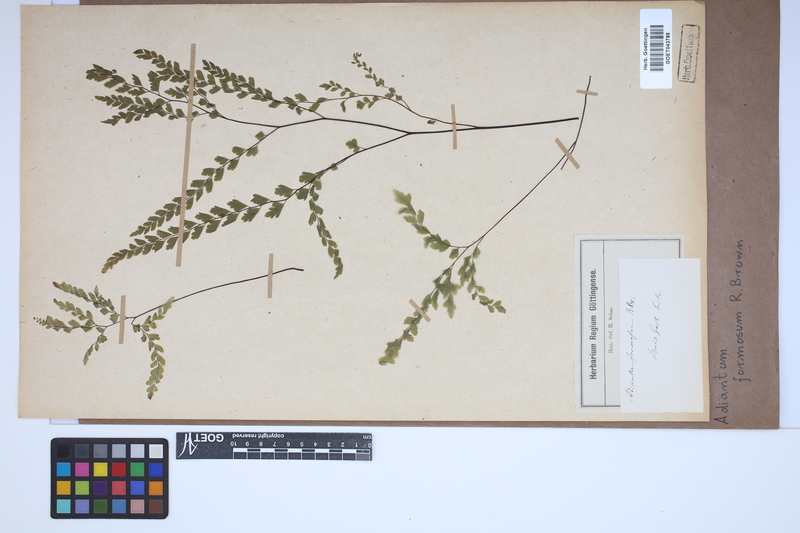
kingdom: Plantae
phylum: Tracheophyta
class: Polypodiopsida
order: Polypodiales
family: Pteridaceae
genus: Adiantum
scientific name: Adiantum formosum
